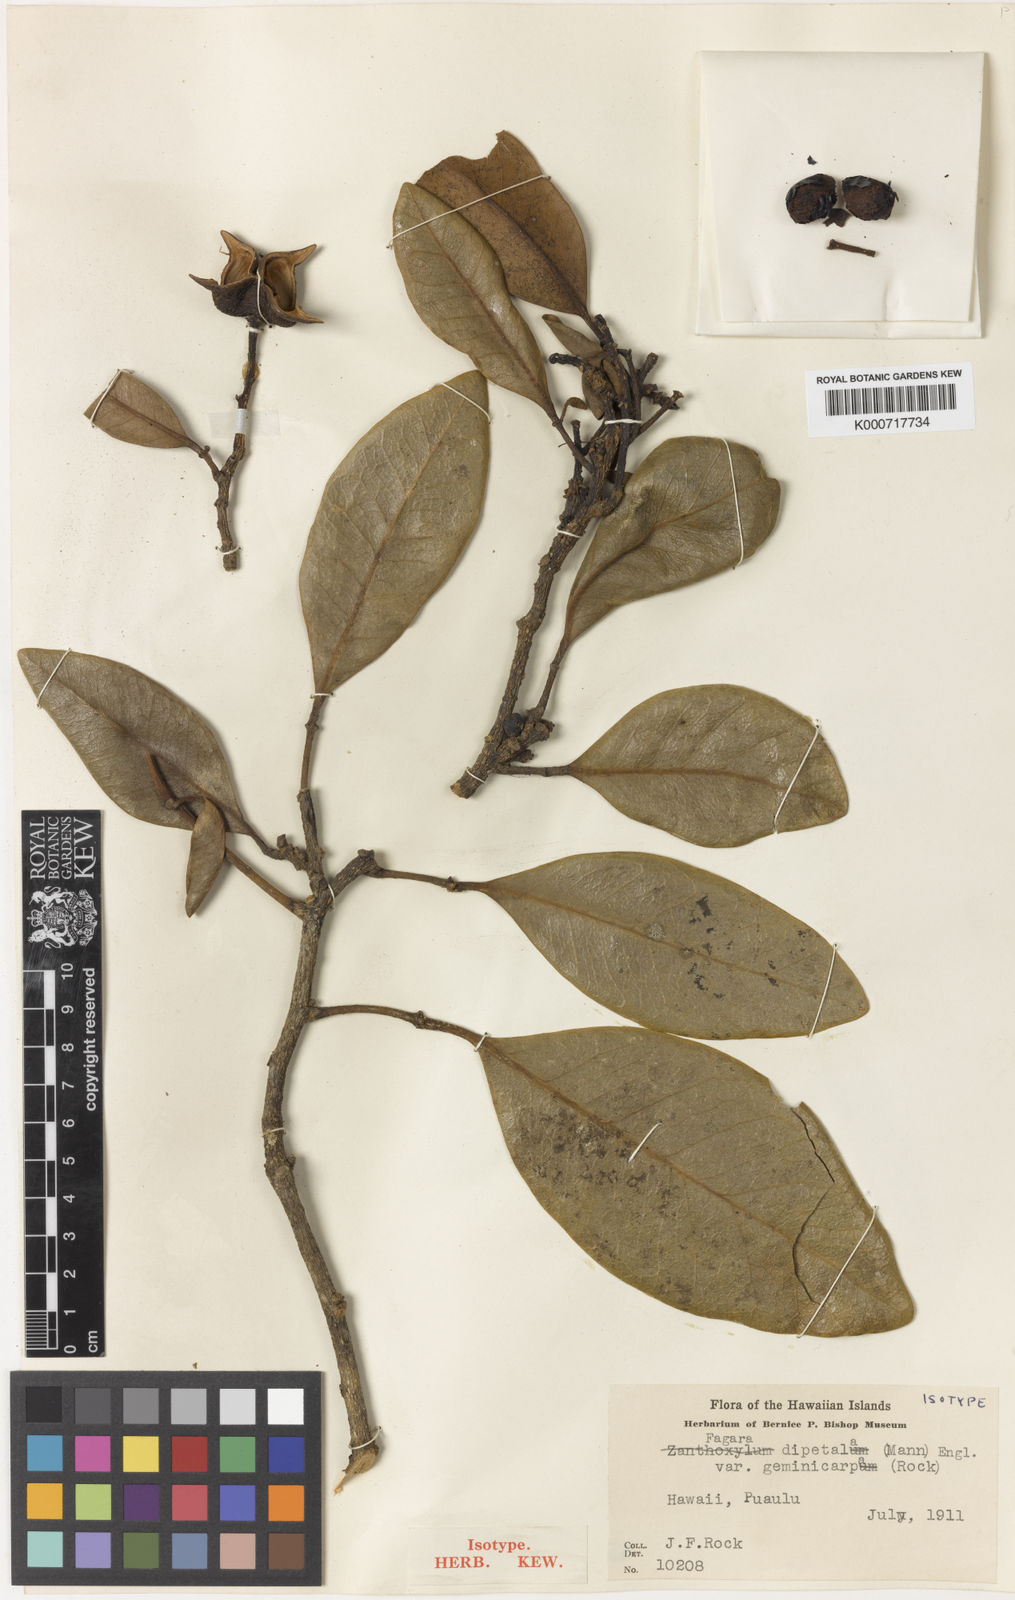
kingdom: Plantae
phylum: Tracheophyta
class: Magnoliopsida
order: Sapindales
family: Rutaceae
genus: Zanthoxylum
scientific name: Zanthoxylum dipetalum
